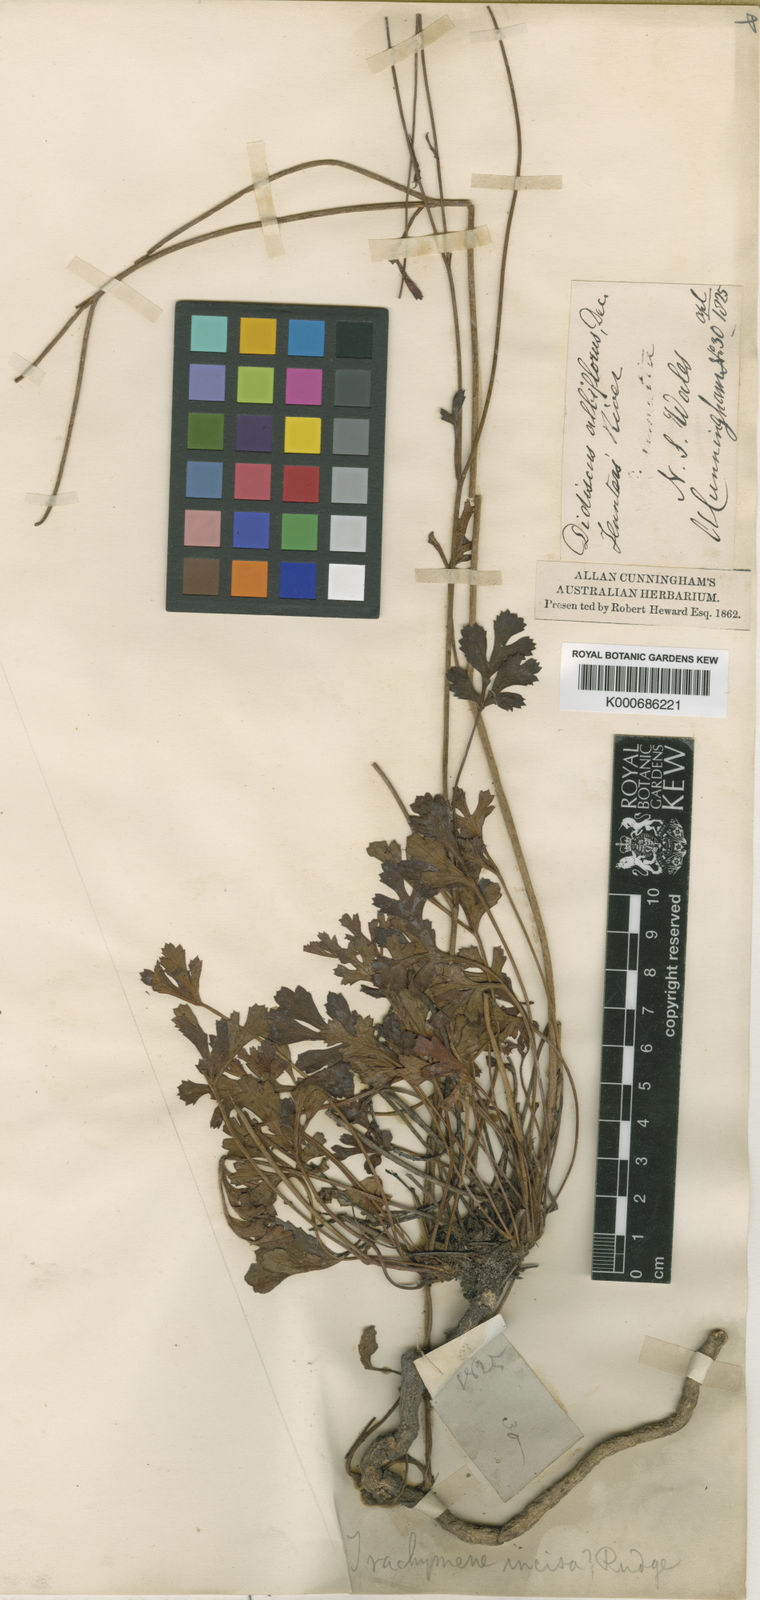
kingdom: Plantae
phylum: Tracheophyta
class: Magnoliopsida
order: Apiales
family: Araliaceae
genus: Trachymene
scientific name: Trachymene incisa
